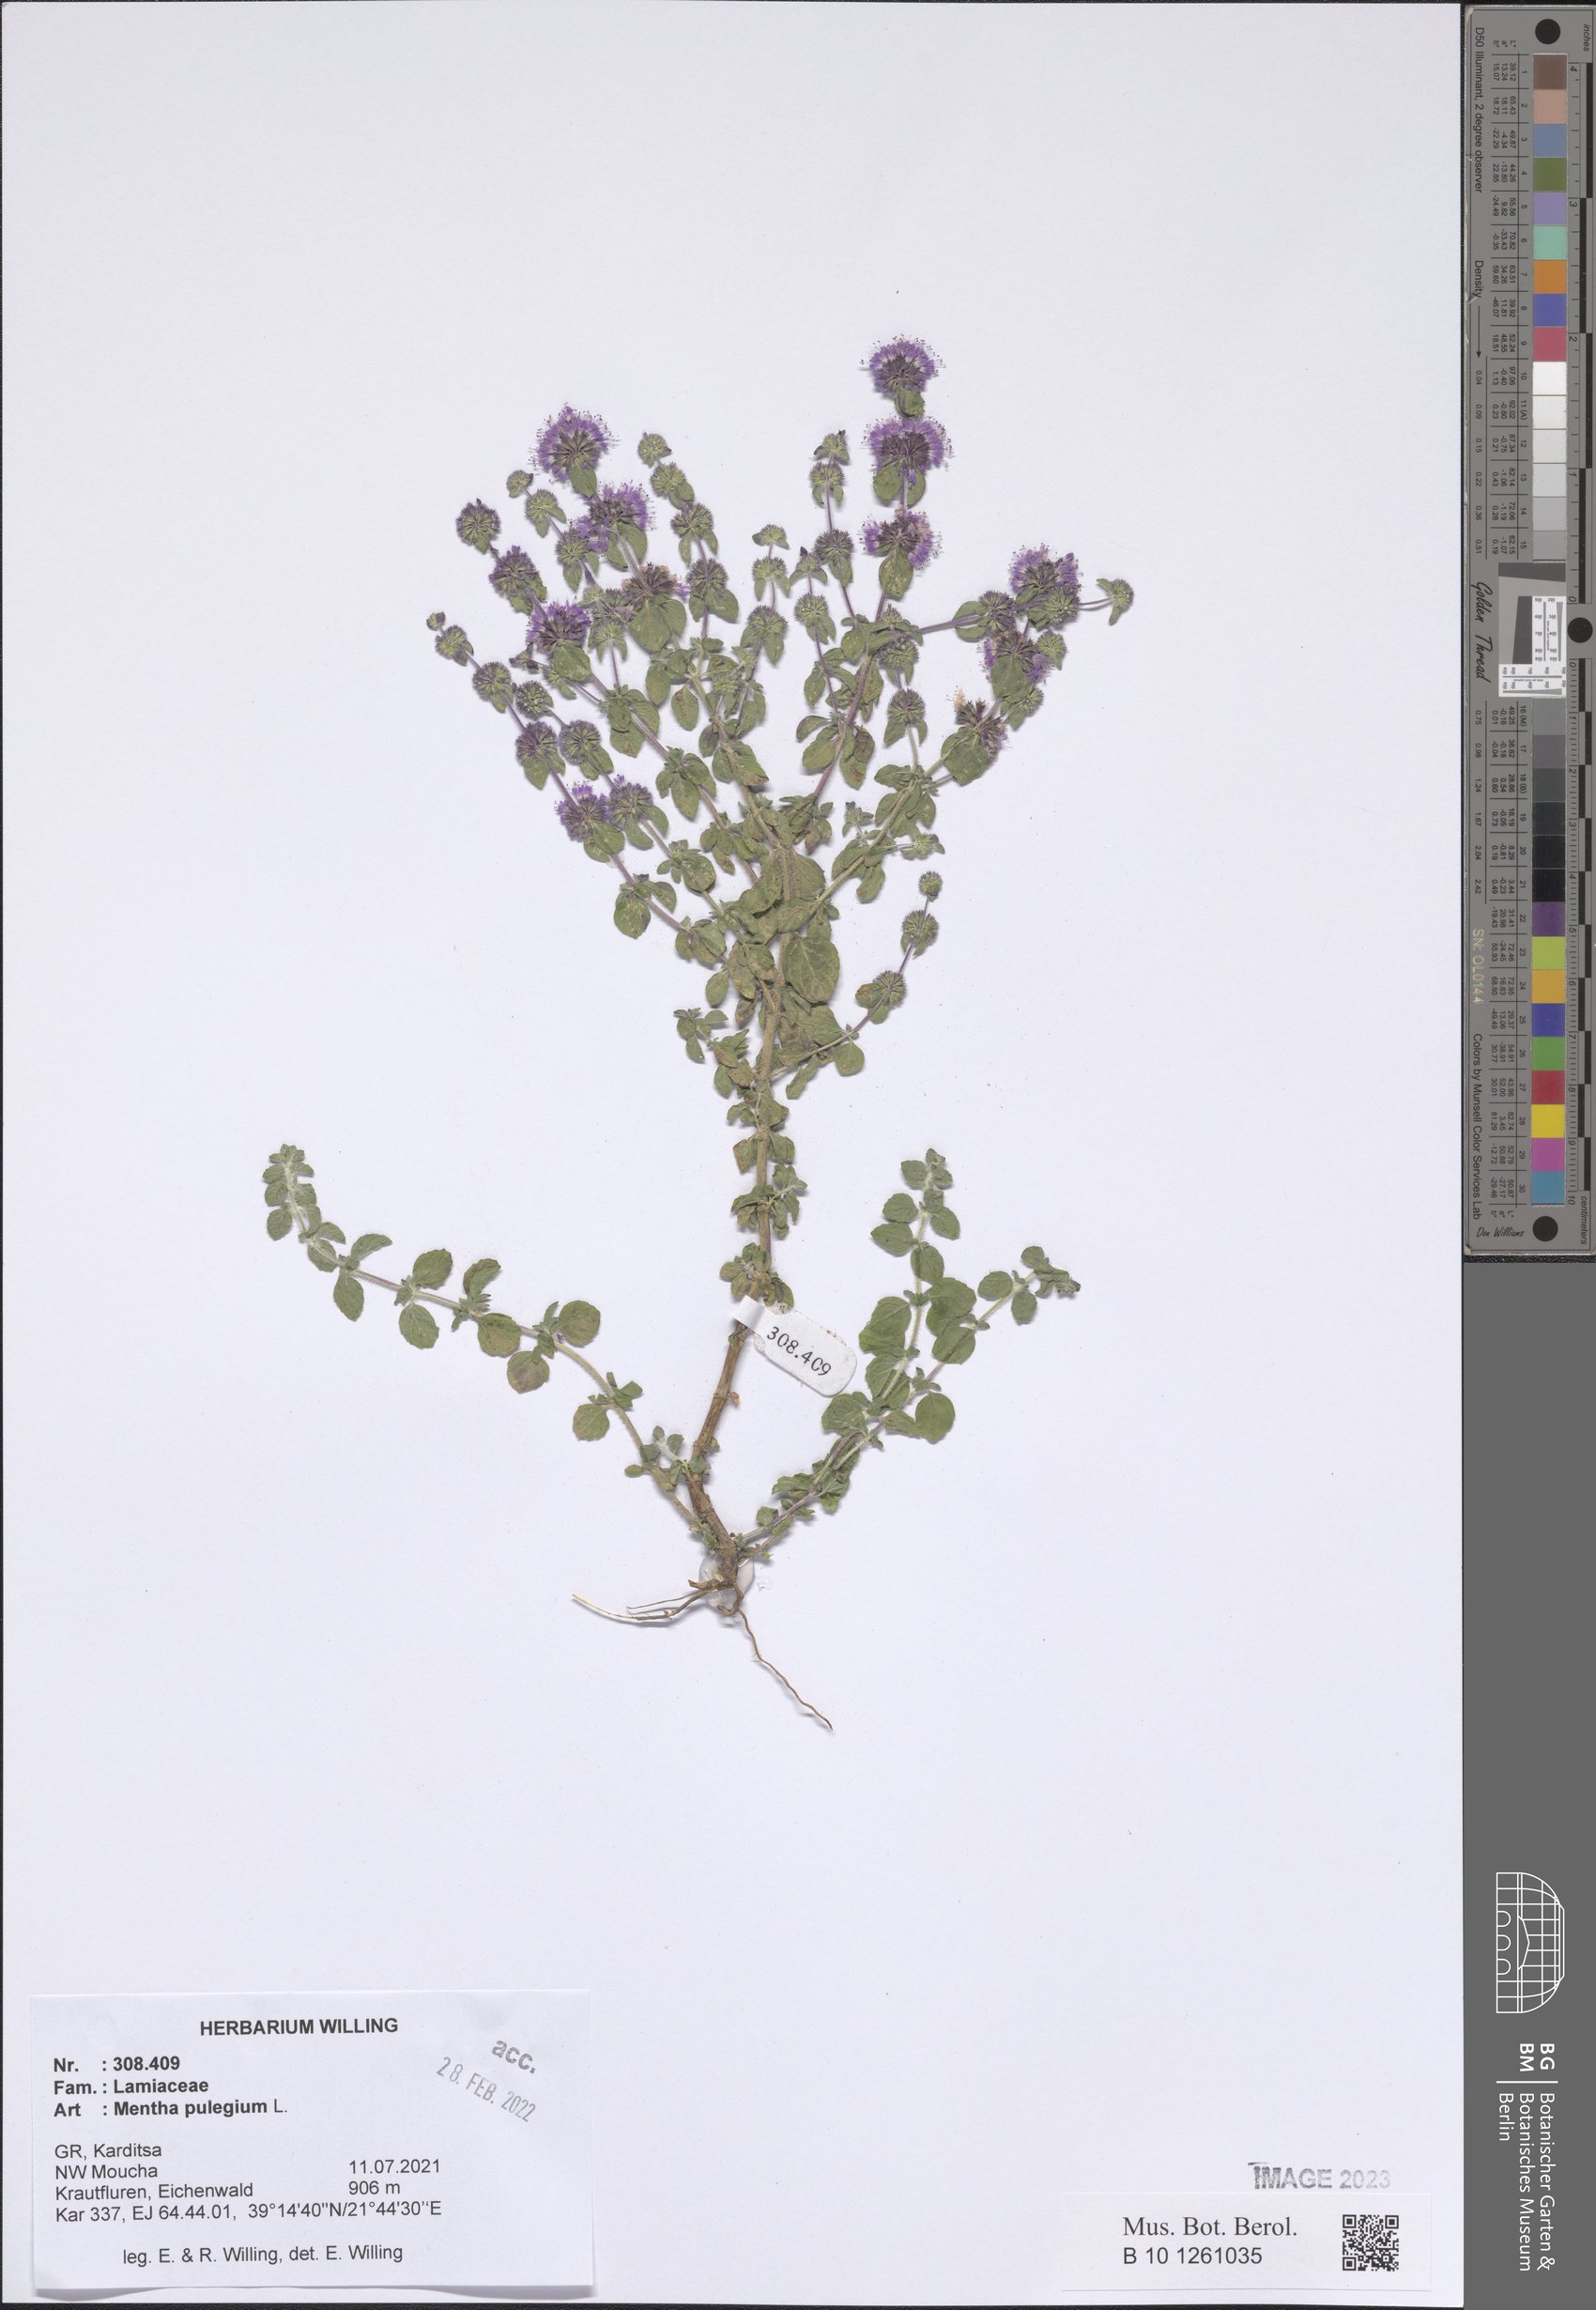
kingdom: Plantae
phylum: Tracheophyta
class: Magnoliopsida
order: Lamiales
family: Lamiaceae
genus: Mentha
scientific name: Mentha pulegium
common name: Pennyroyal
